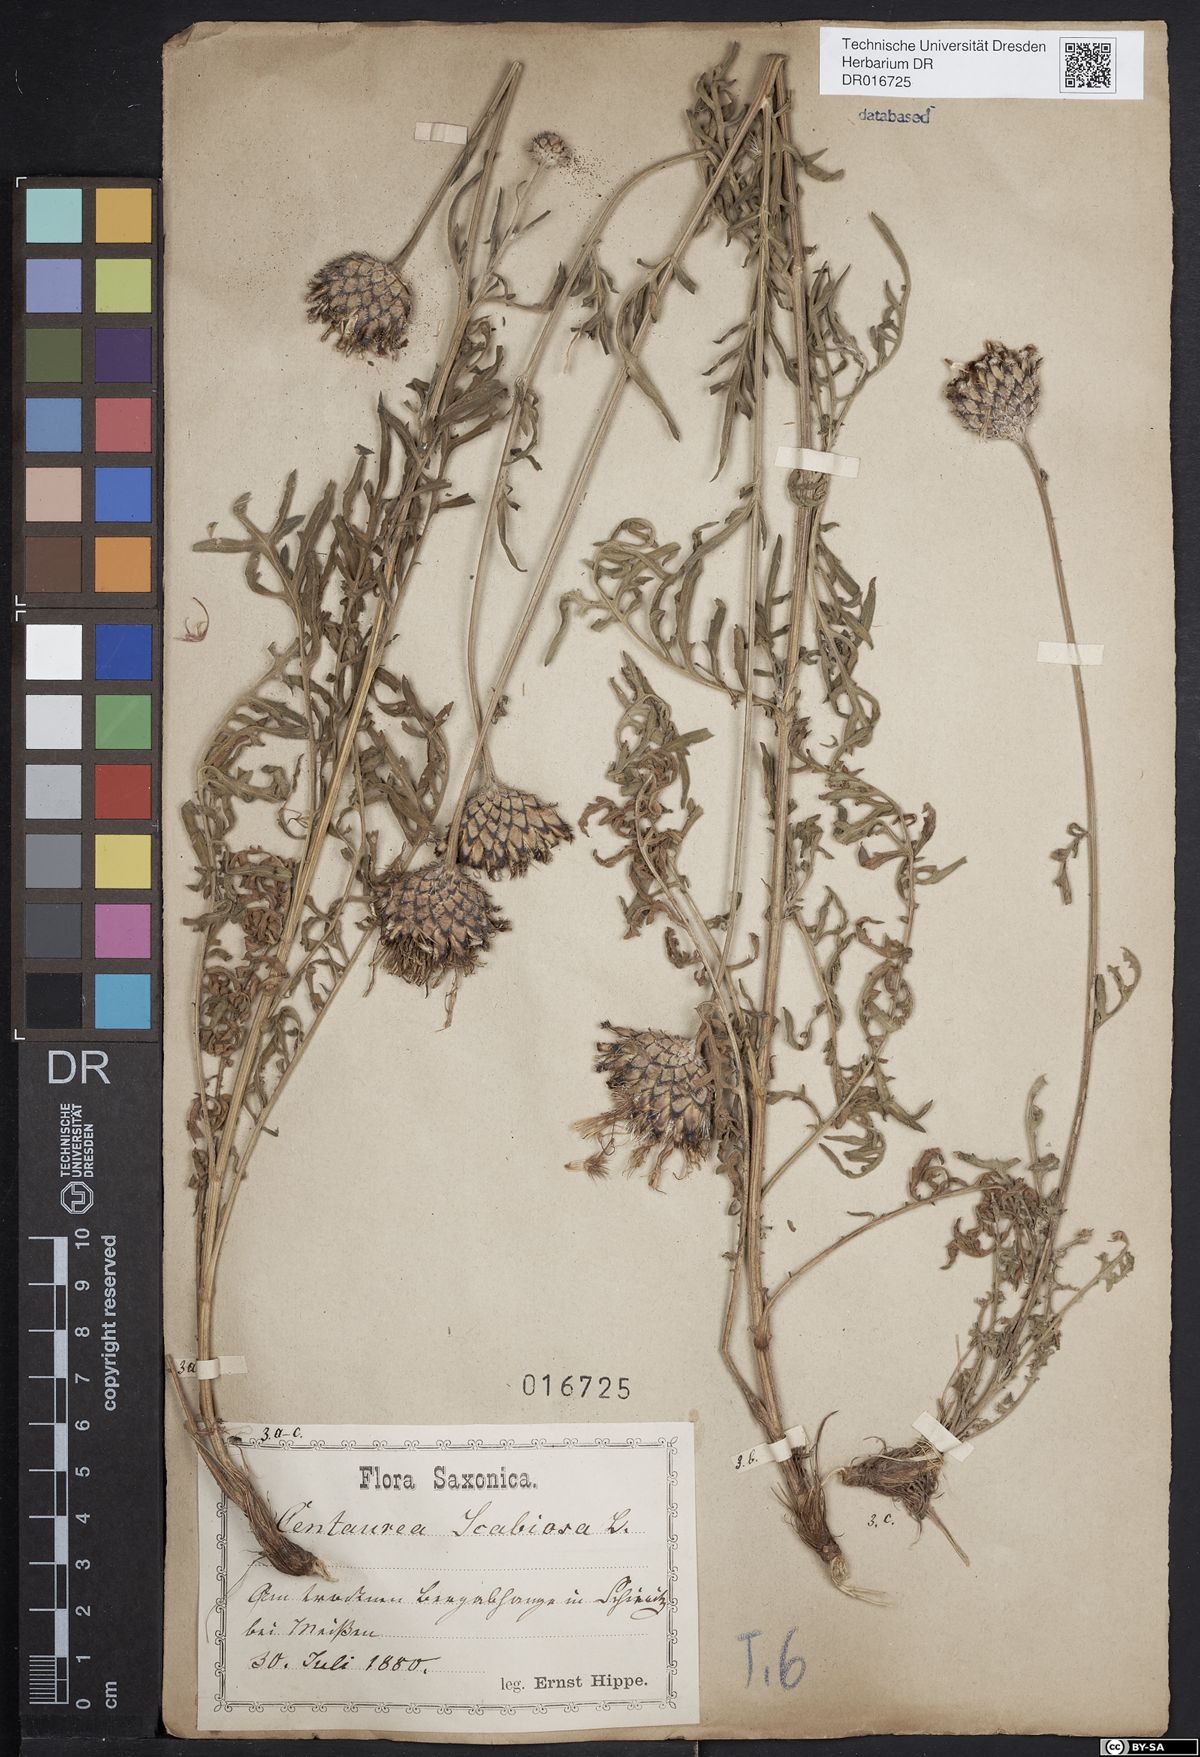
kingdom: Plantae
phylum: Tracheophyta
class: Magnoliopsida
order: Asterales
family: Asteraceae
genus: Centaurea
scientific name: Centaurea scabiosa
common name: Greater knapweed
